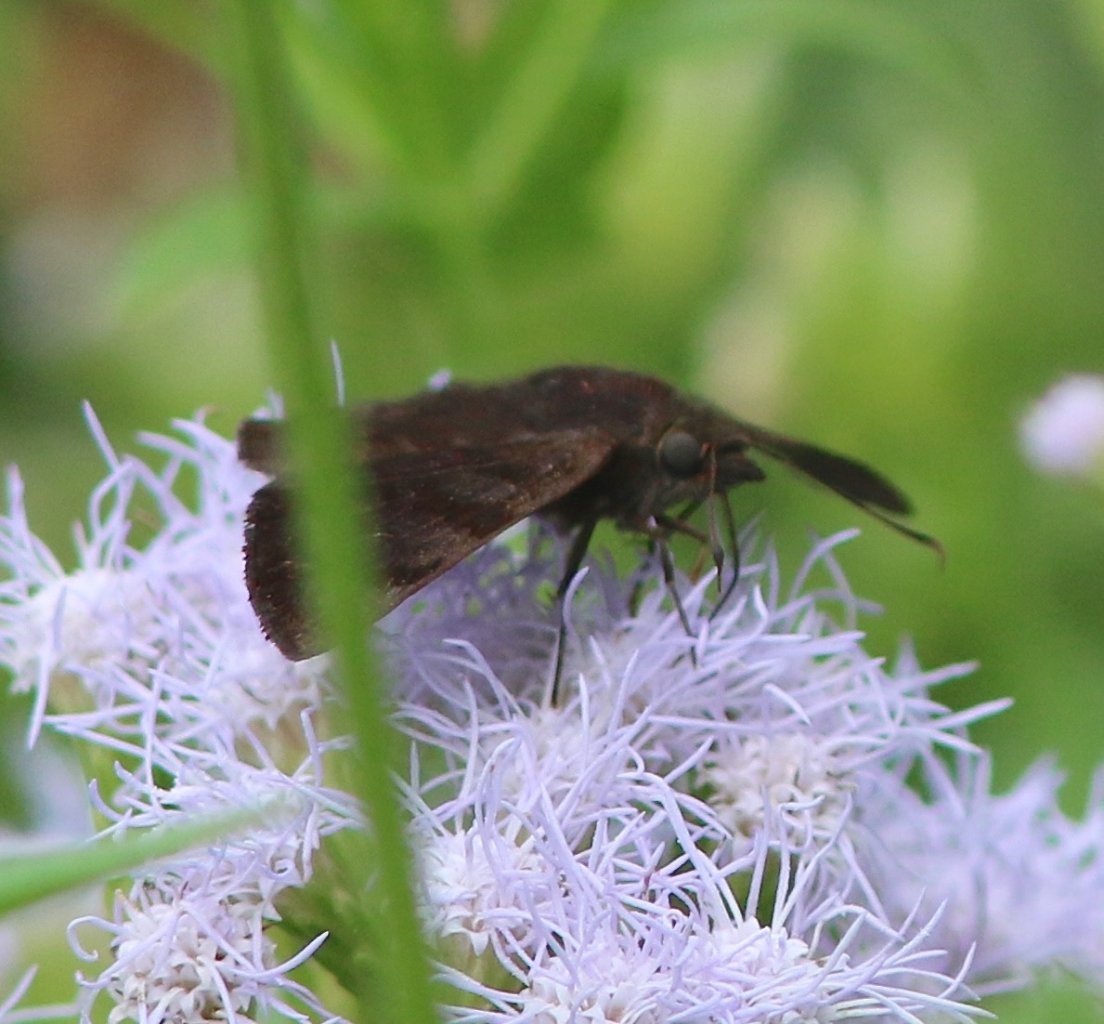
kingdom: Animalia
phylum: Arthropoda
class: Insecta
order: Lepidoptera
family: Hesperiidae
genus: Pellicia
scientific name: Pellicia costimacula
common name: Glazed Pellicia
